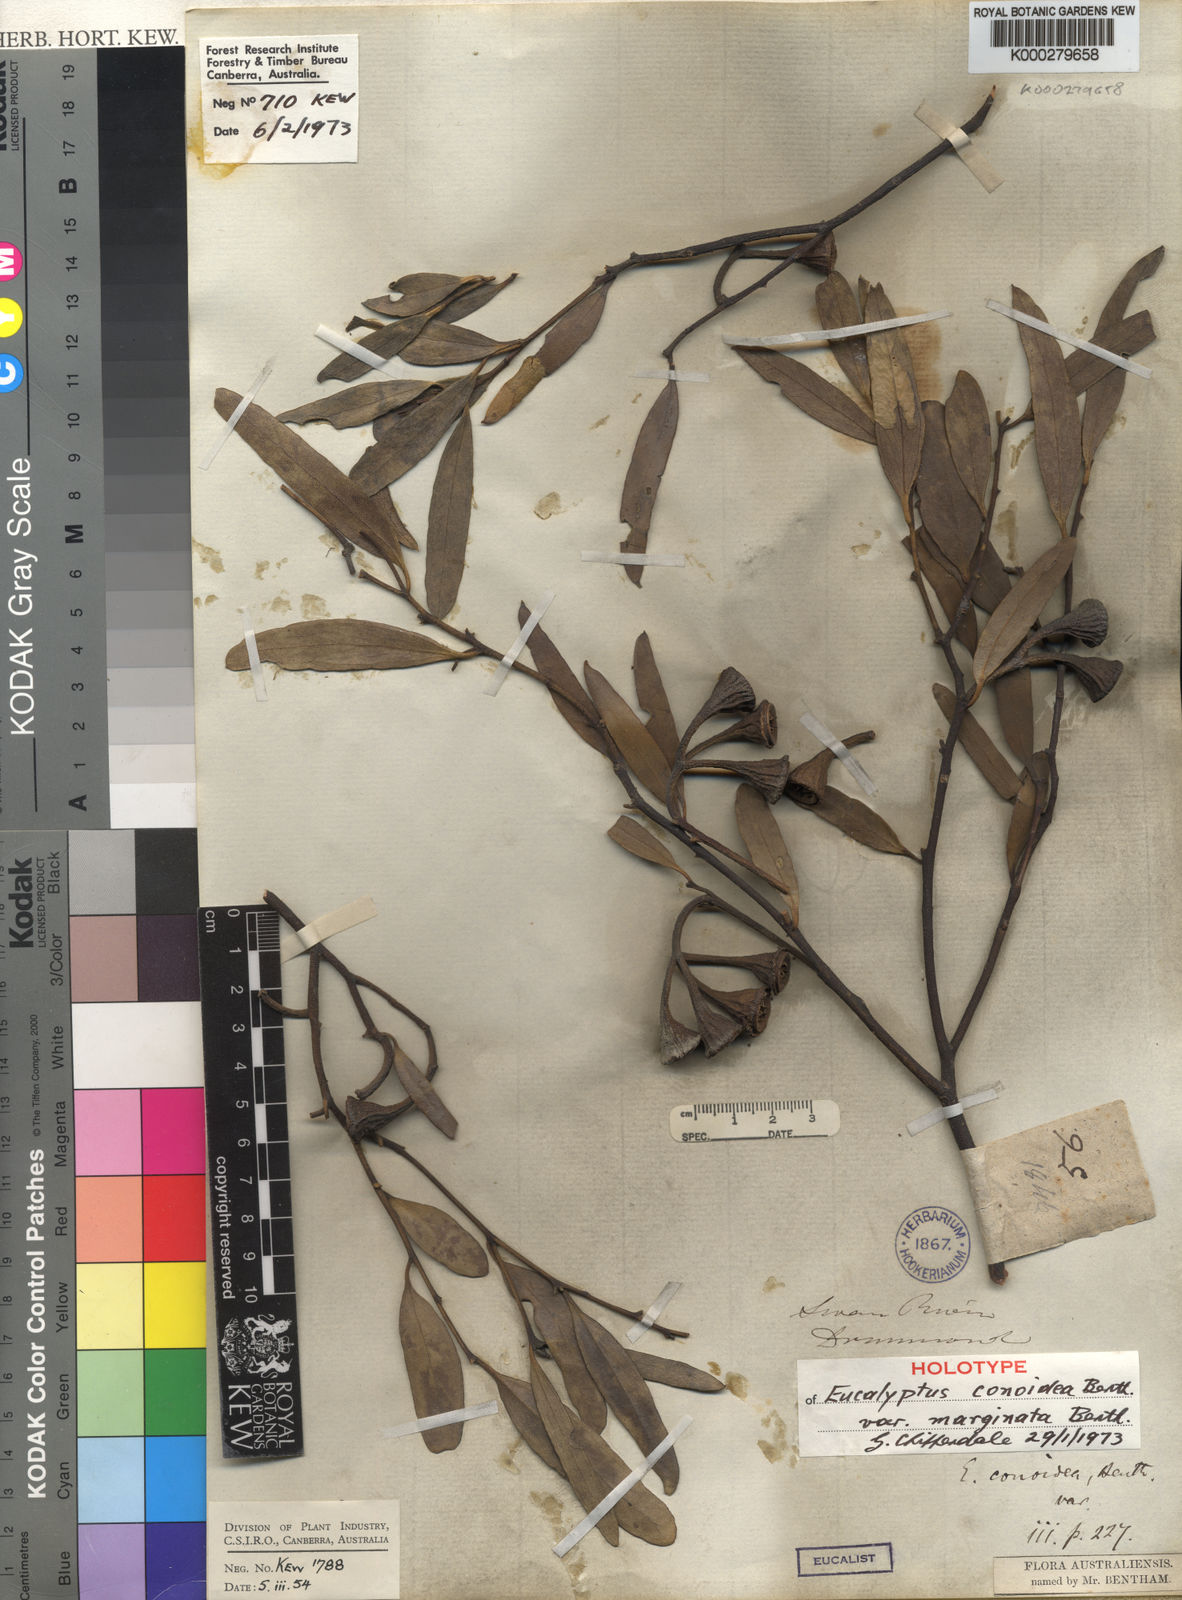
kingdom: Plantae
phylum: Tracheophyta
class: Magnoliopsida
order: Myrtales
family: Myrtaceae
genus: Eucalyptus
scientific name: Eucalyptus erythronema
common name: Red-flowered mallee
